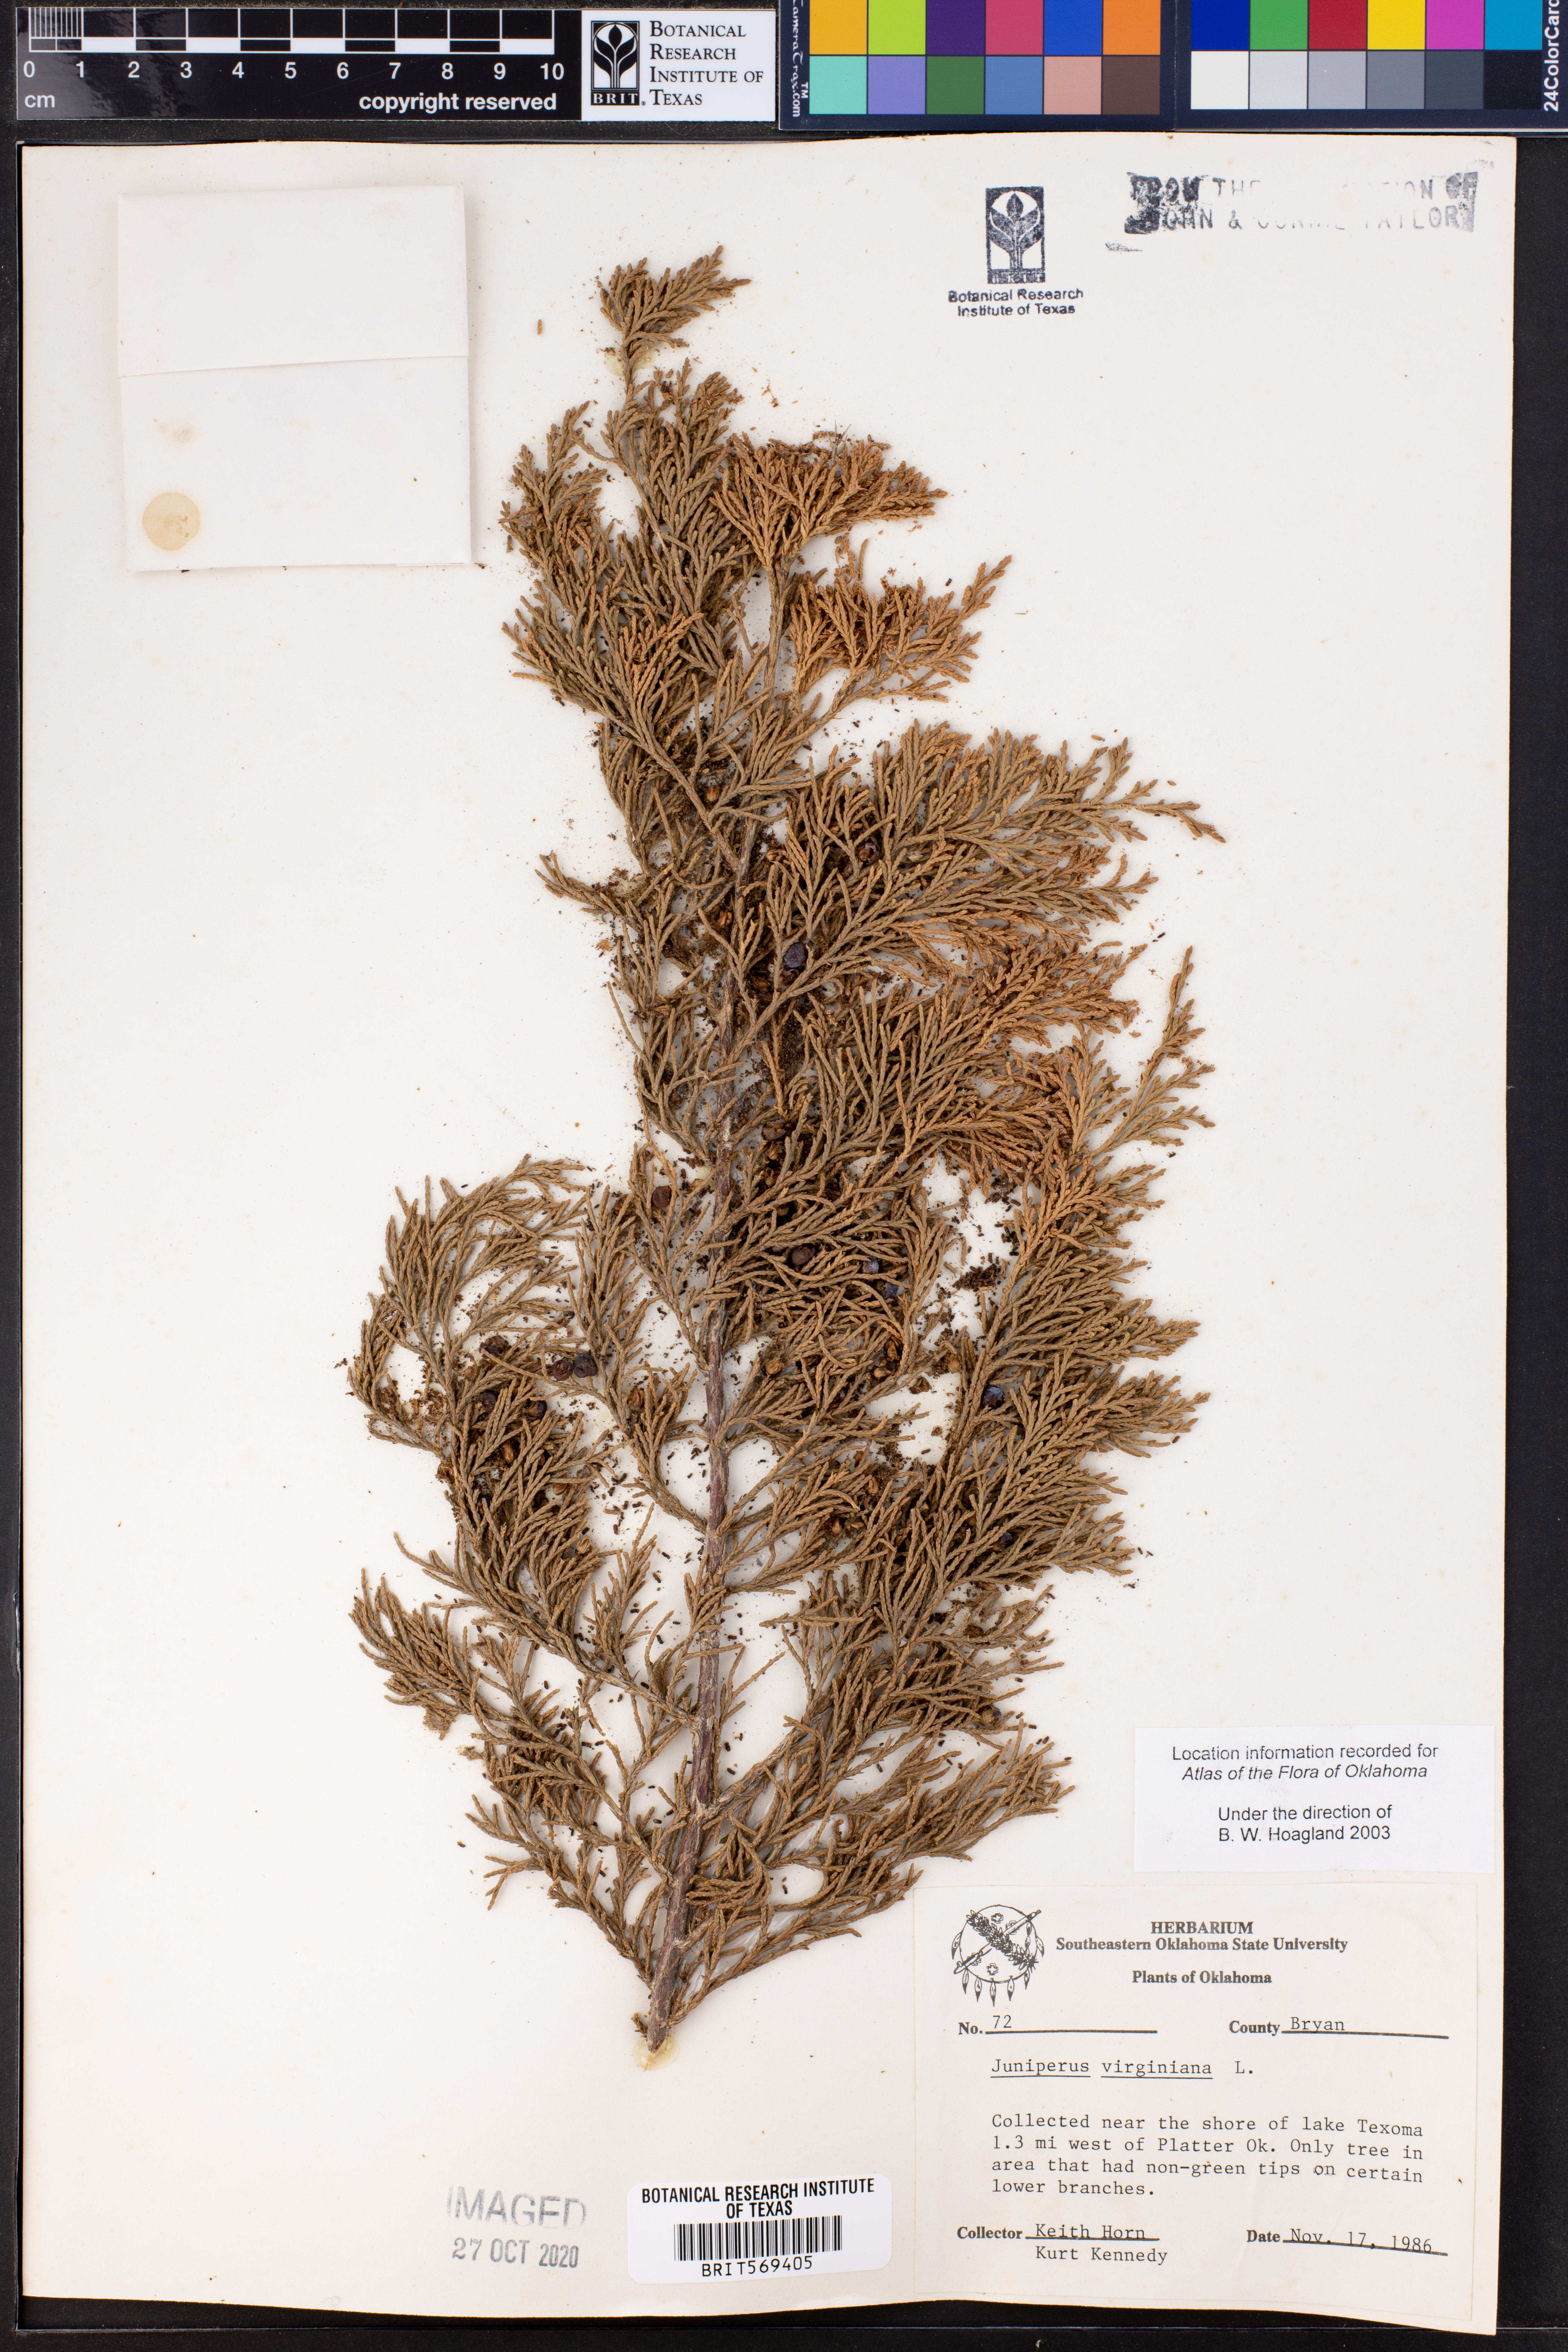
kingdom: Plantae
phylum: Tracheophyta
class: Pinopsida
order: Pinales
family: Cupressaceae
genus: Juniperus
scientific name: Juniperus virginiana
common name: Red juniper
